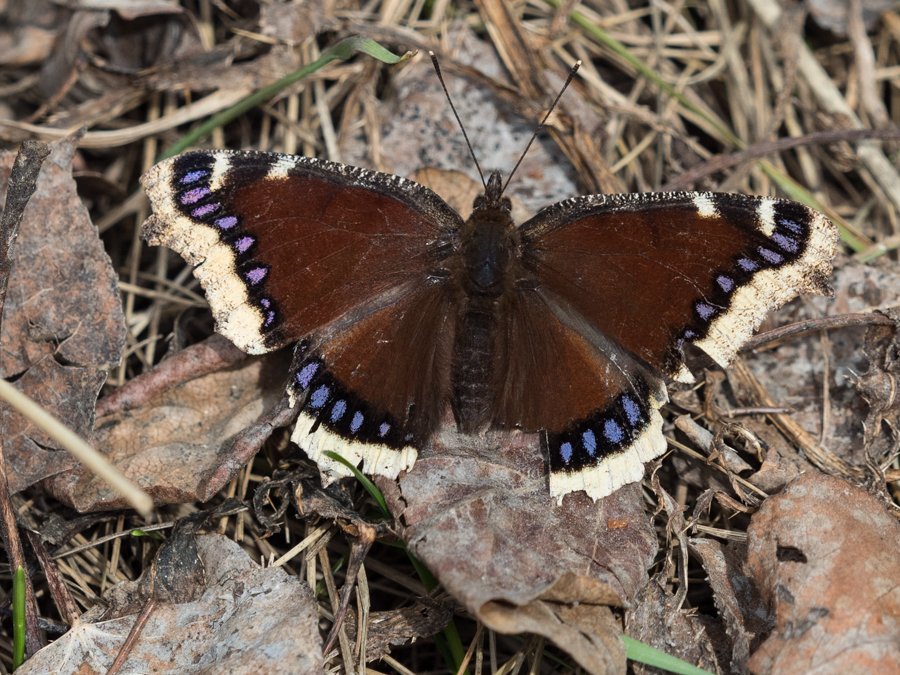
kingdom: Animalia
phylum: Arthropoda
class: Insecta
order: Lepidoptera
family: Nymphalidae
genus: Nymphalis
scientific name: Nymphalis antiopa
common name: Mourning Cloak
